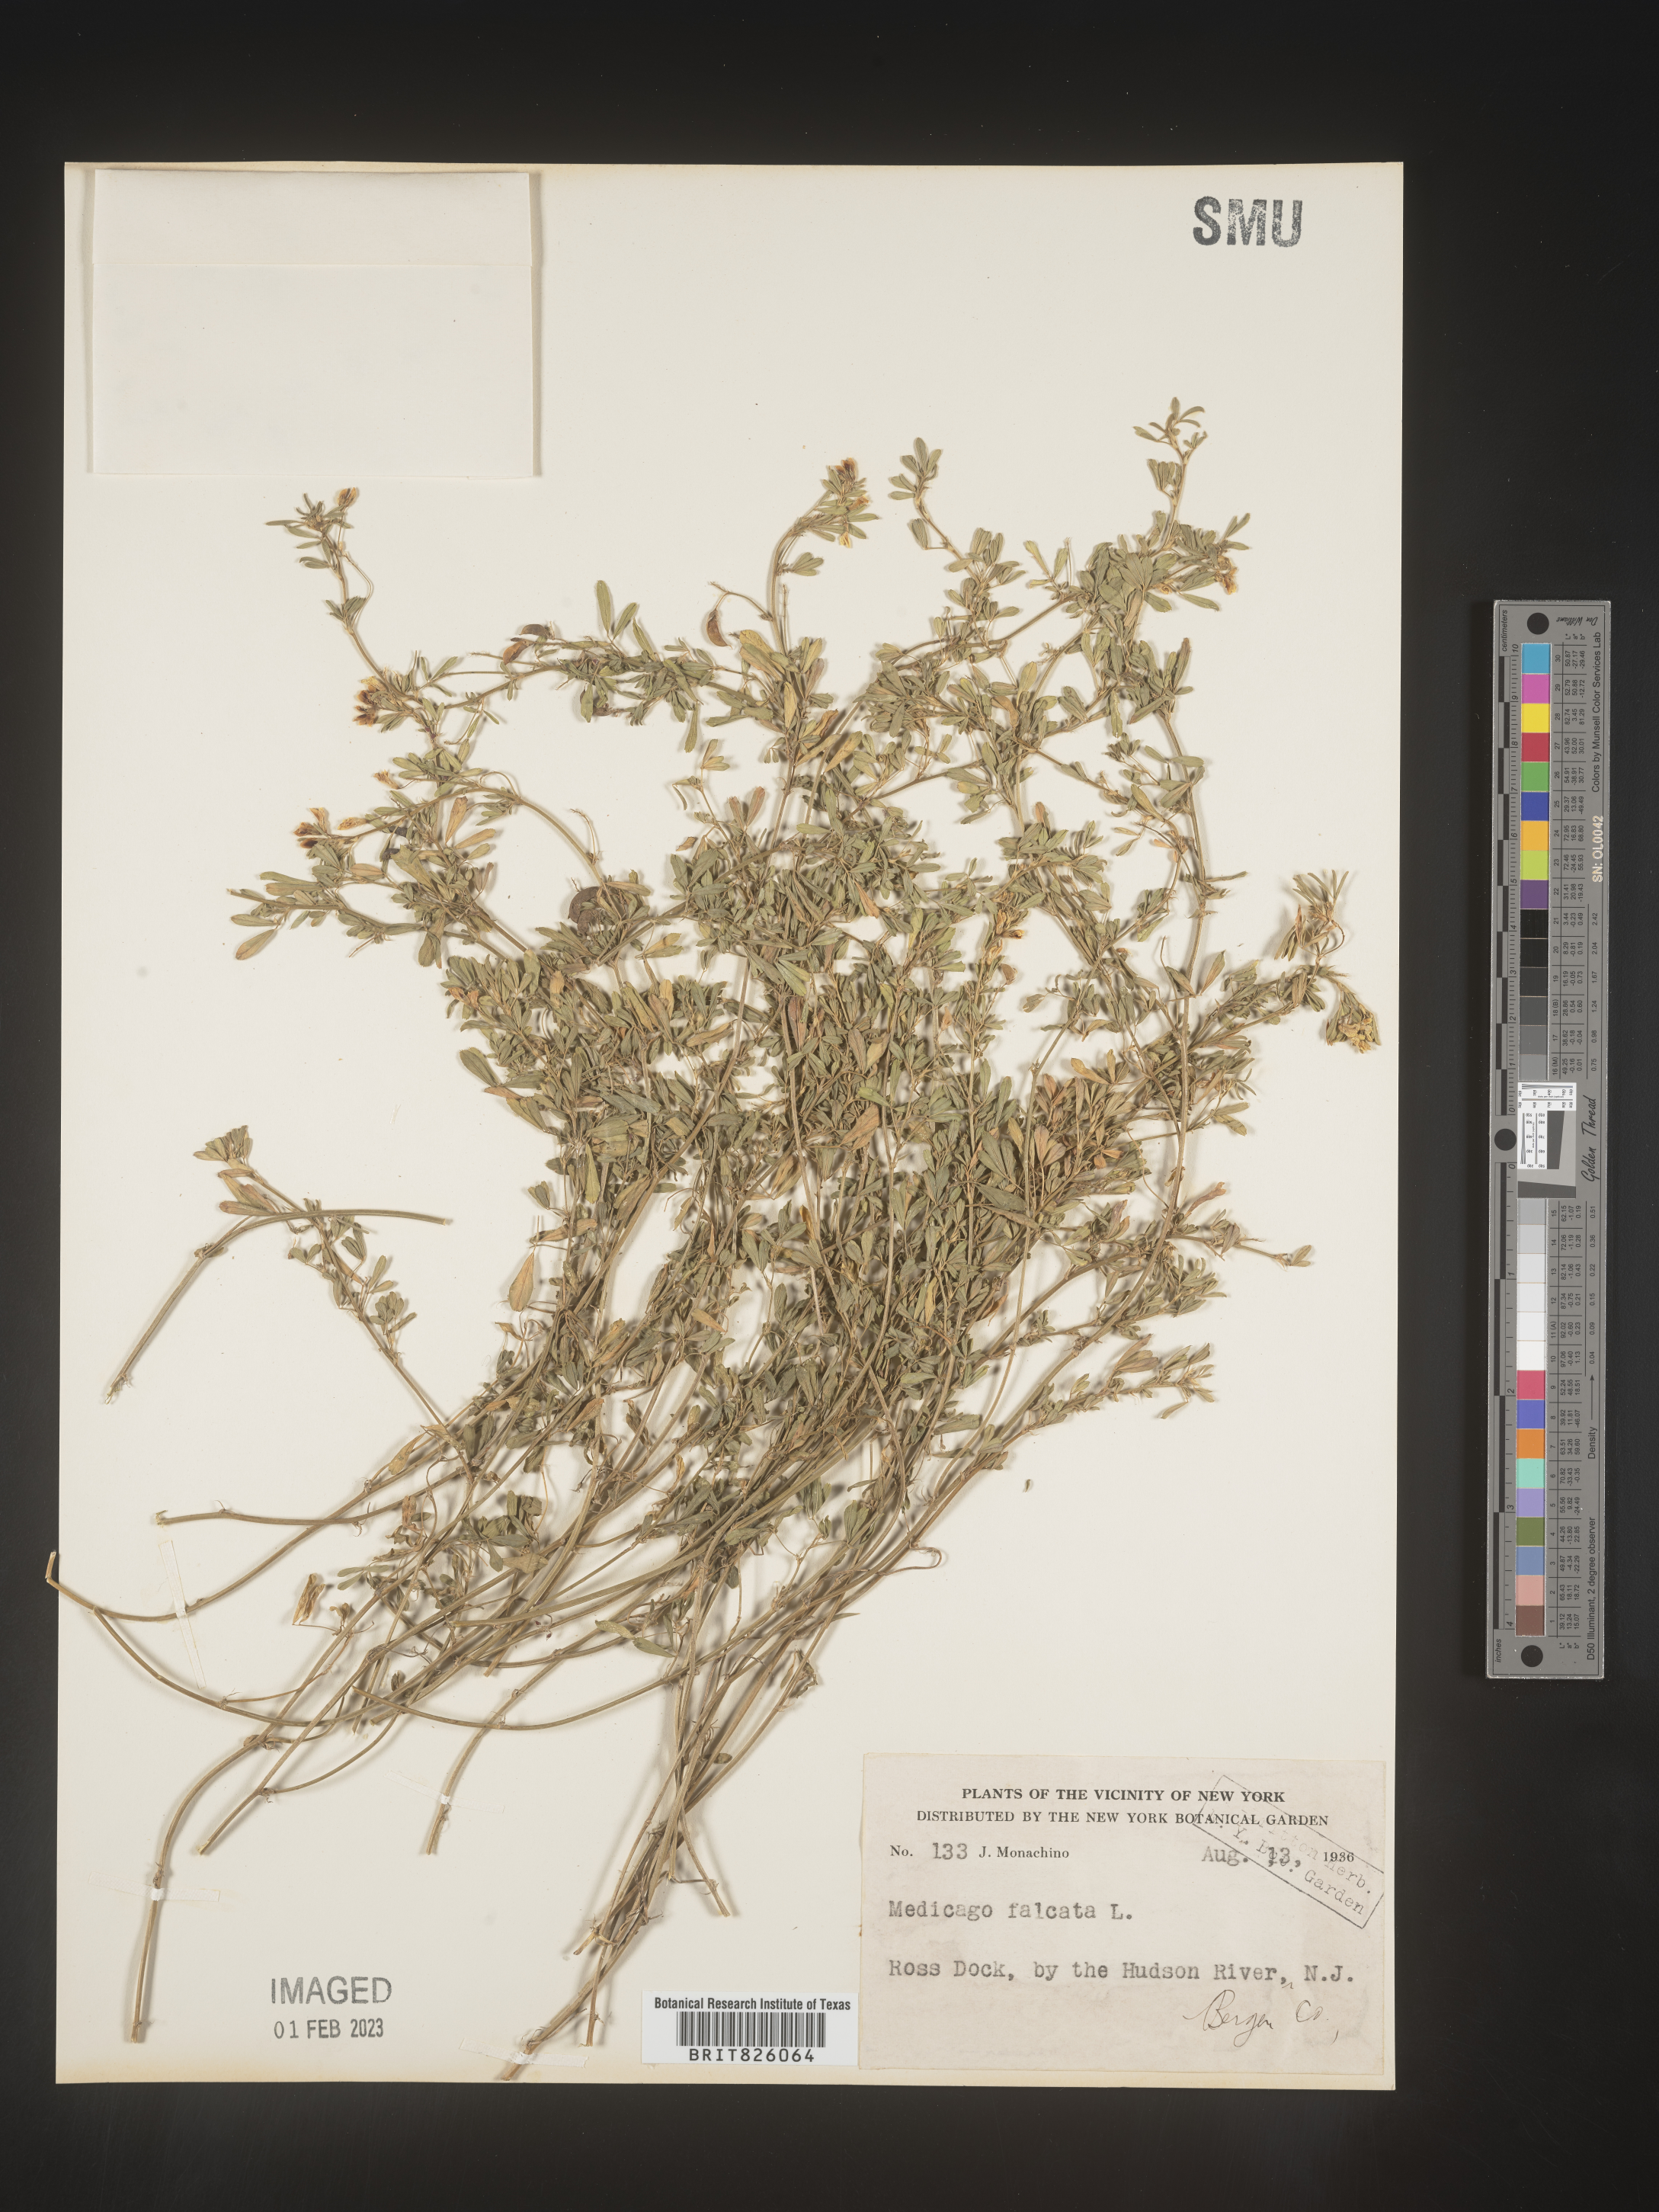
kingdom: Plantae
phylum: Tracheophyta
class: Magnoliopsida
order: Fabales
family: Fabaceae
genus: Medicago
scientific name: Medicago sativa
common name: Alfalfa
